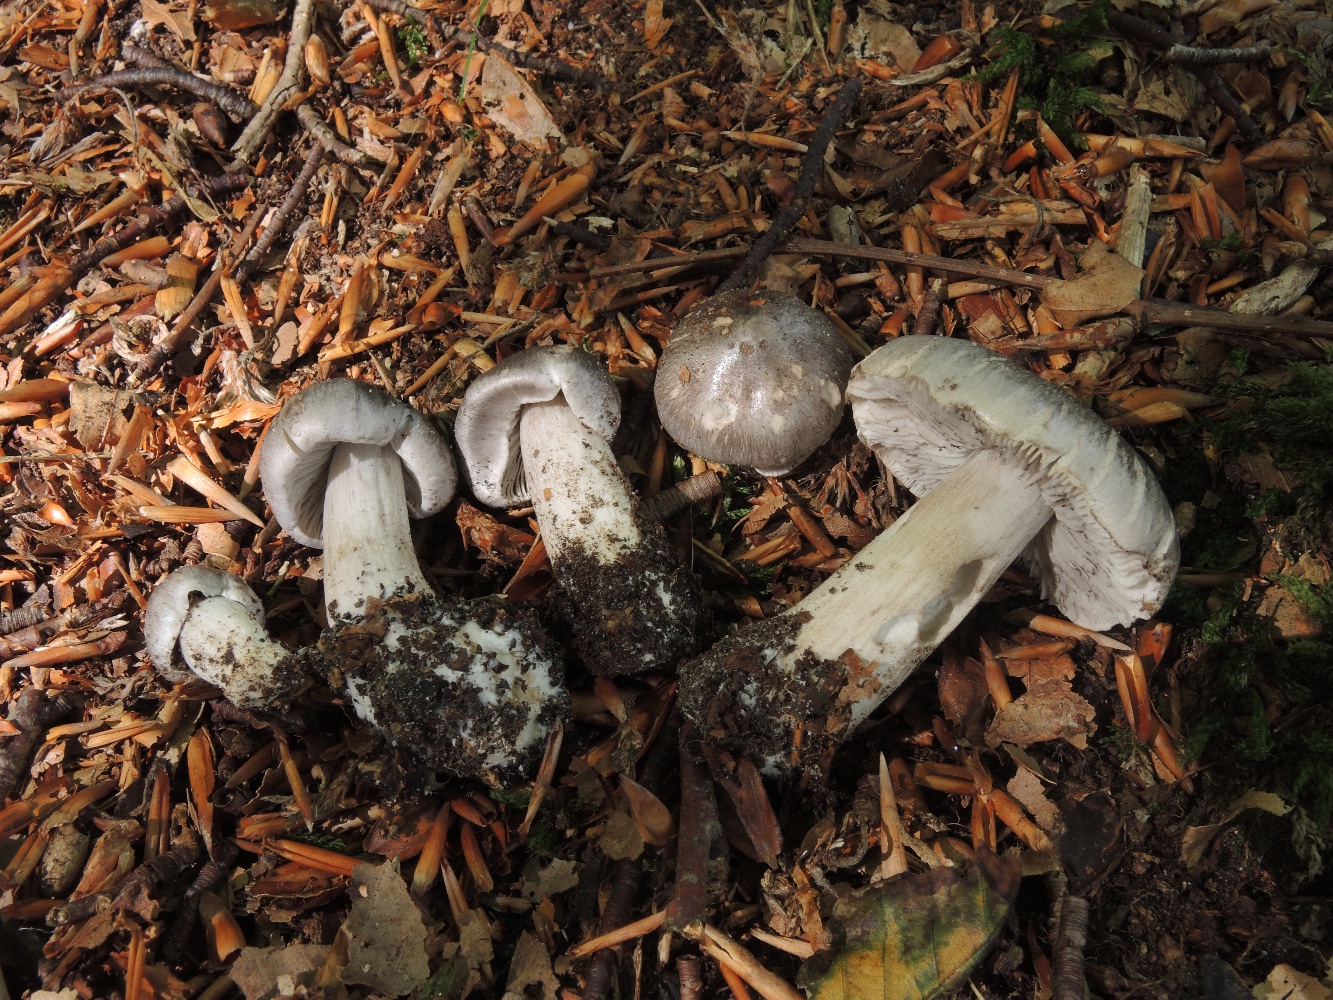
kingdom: Fungi
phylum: Basidiomycota
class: Agaricomycetes
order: Agaricales
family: Tricholomataceae
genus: Tricholoma
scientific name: Tricholoma sciodes
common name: stribet ridderhat
